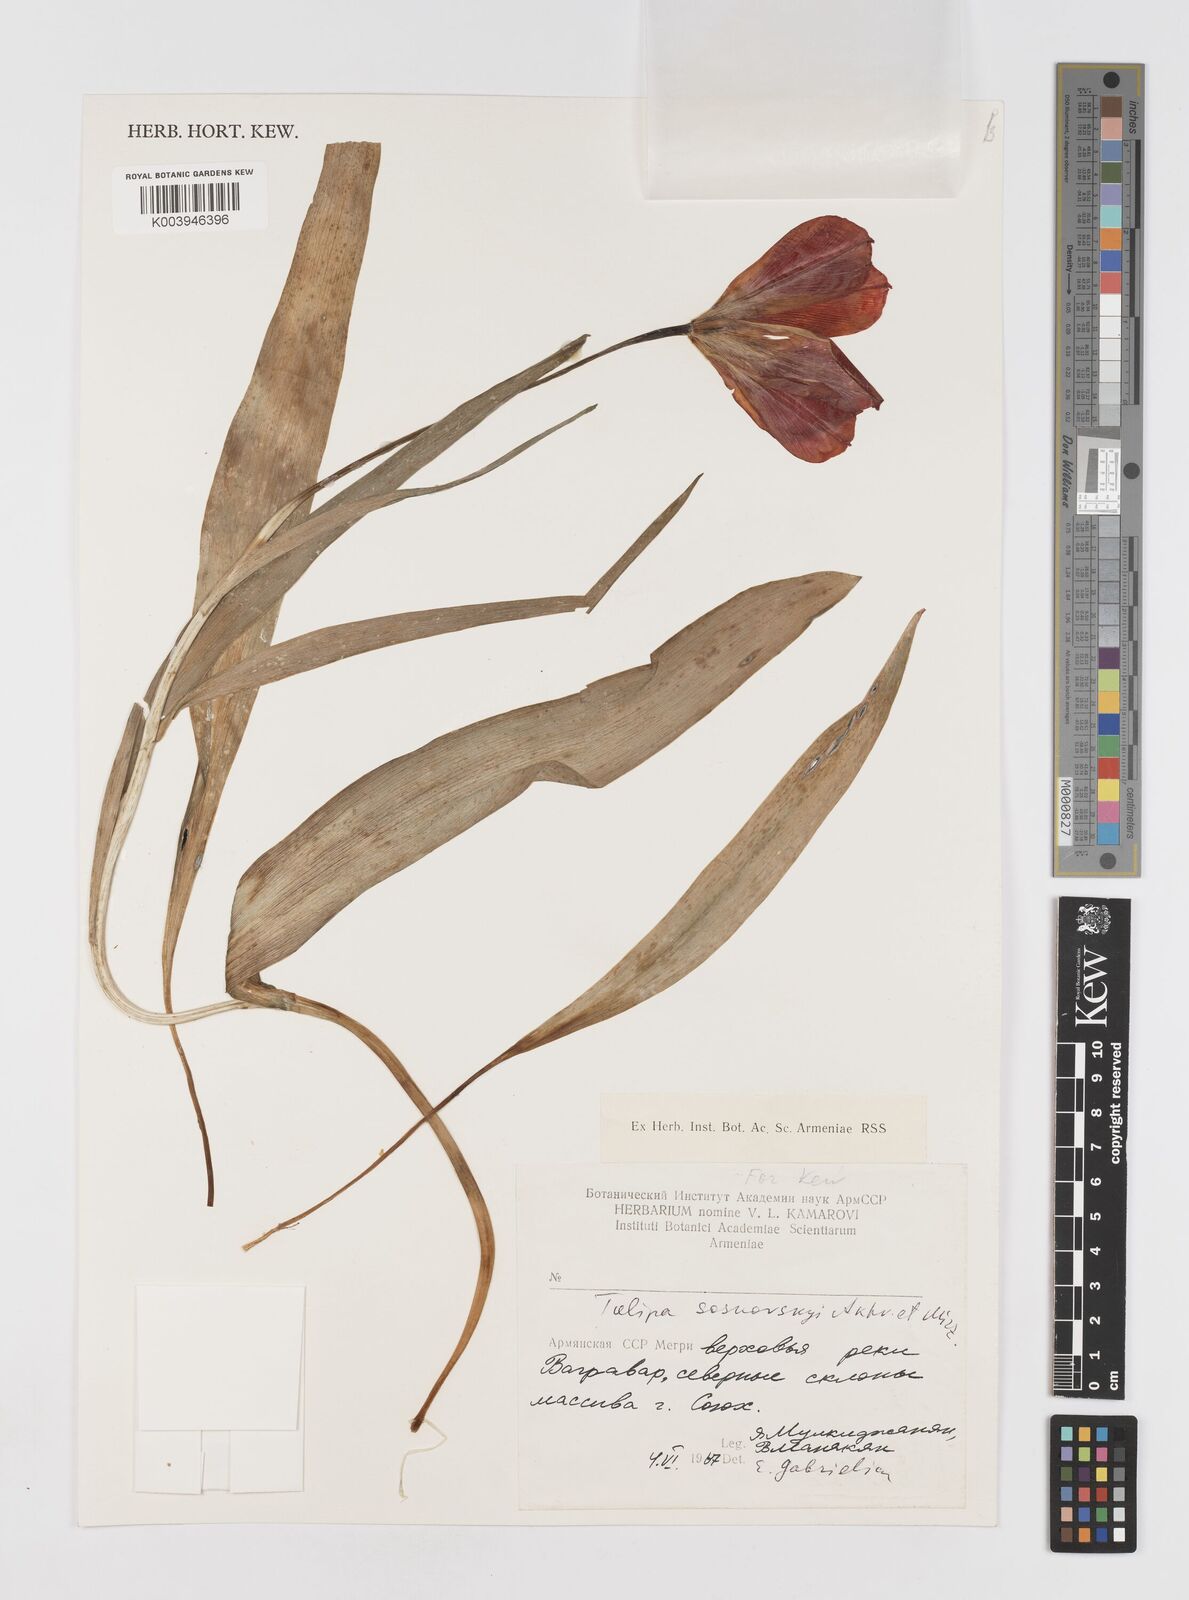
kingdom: Plantae
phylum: Tracheophyta
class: Liliopsida
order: Liliales
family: Liliaceae
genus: Tulipa
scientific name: Tulipa sosnowskyi
